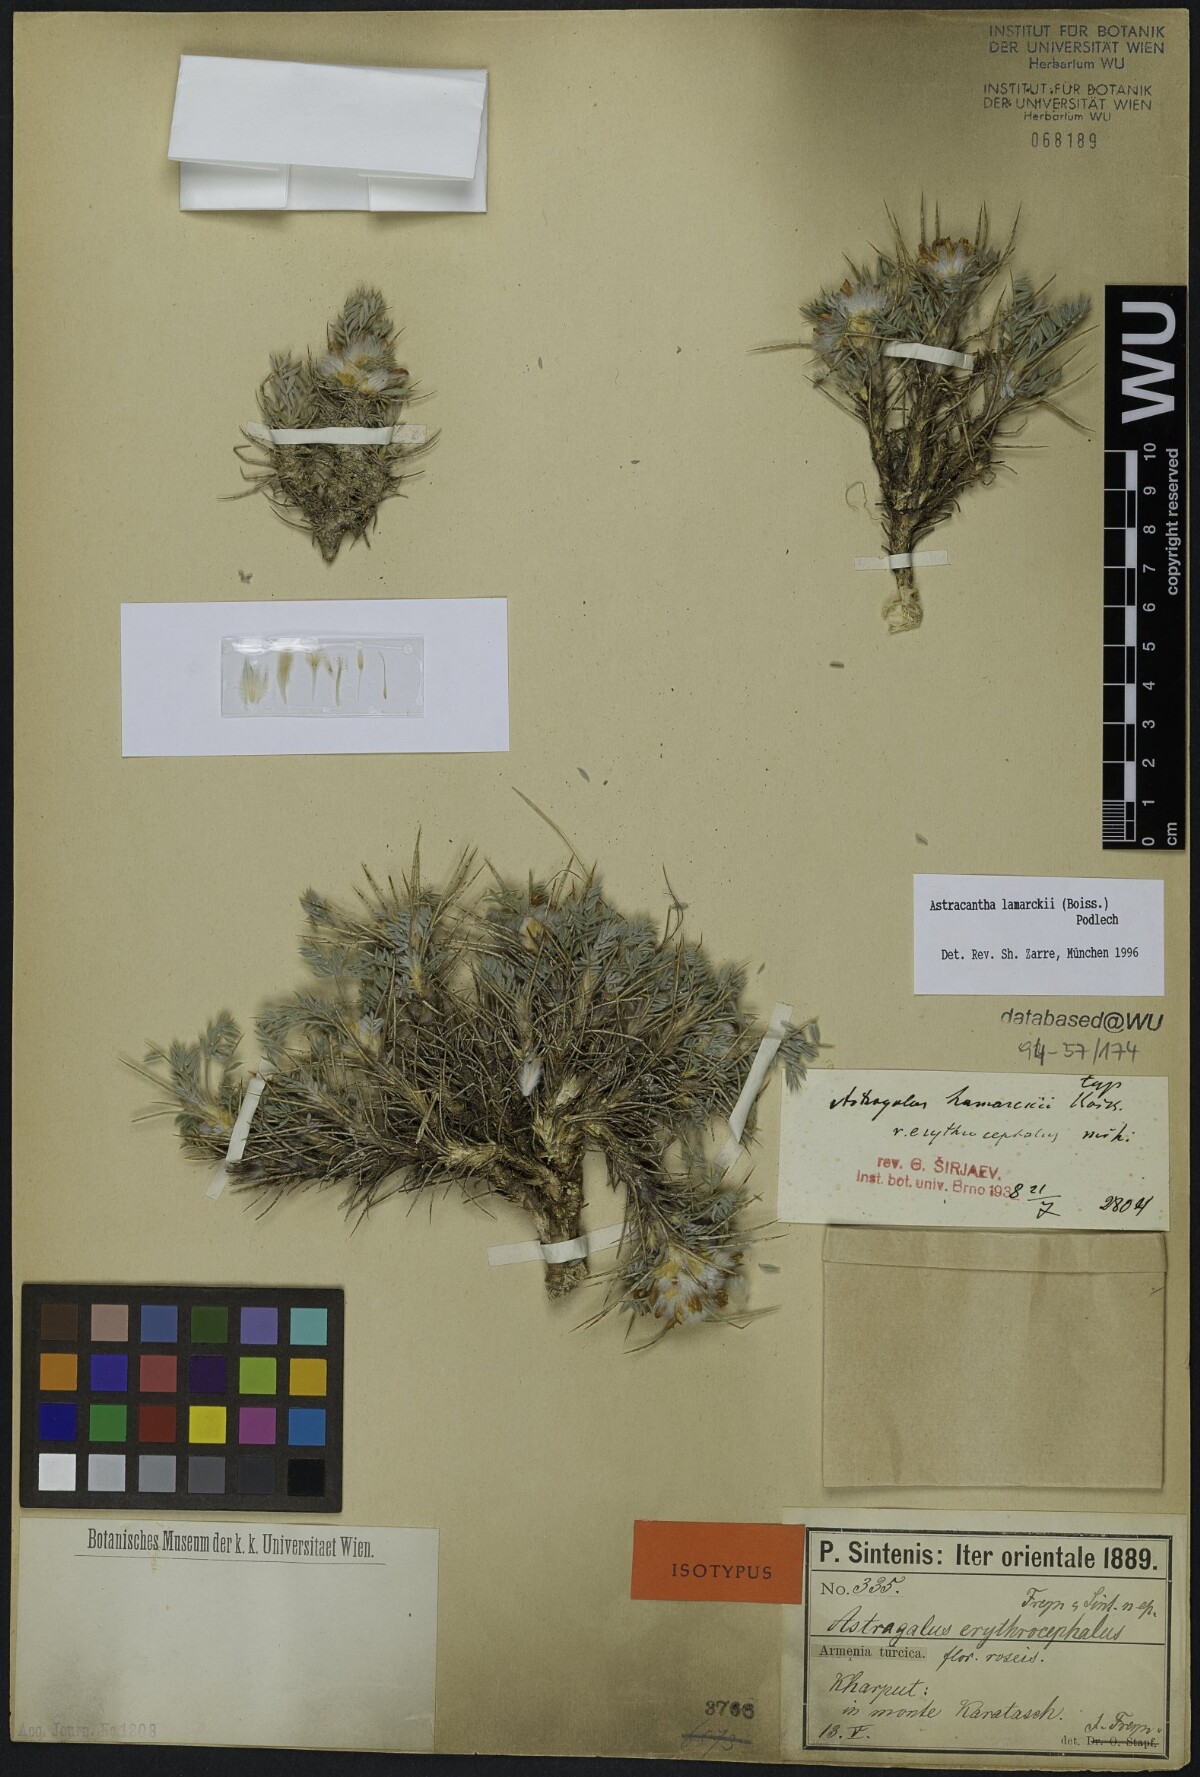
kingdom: Plantae
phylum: Tracheophyta
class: Magnoliopsida
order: Fabales
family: Fabaceae
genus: Astragalus
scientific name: Astragalus lamarckii
